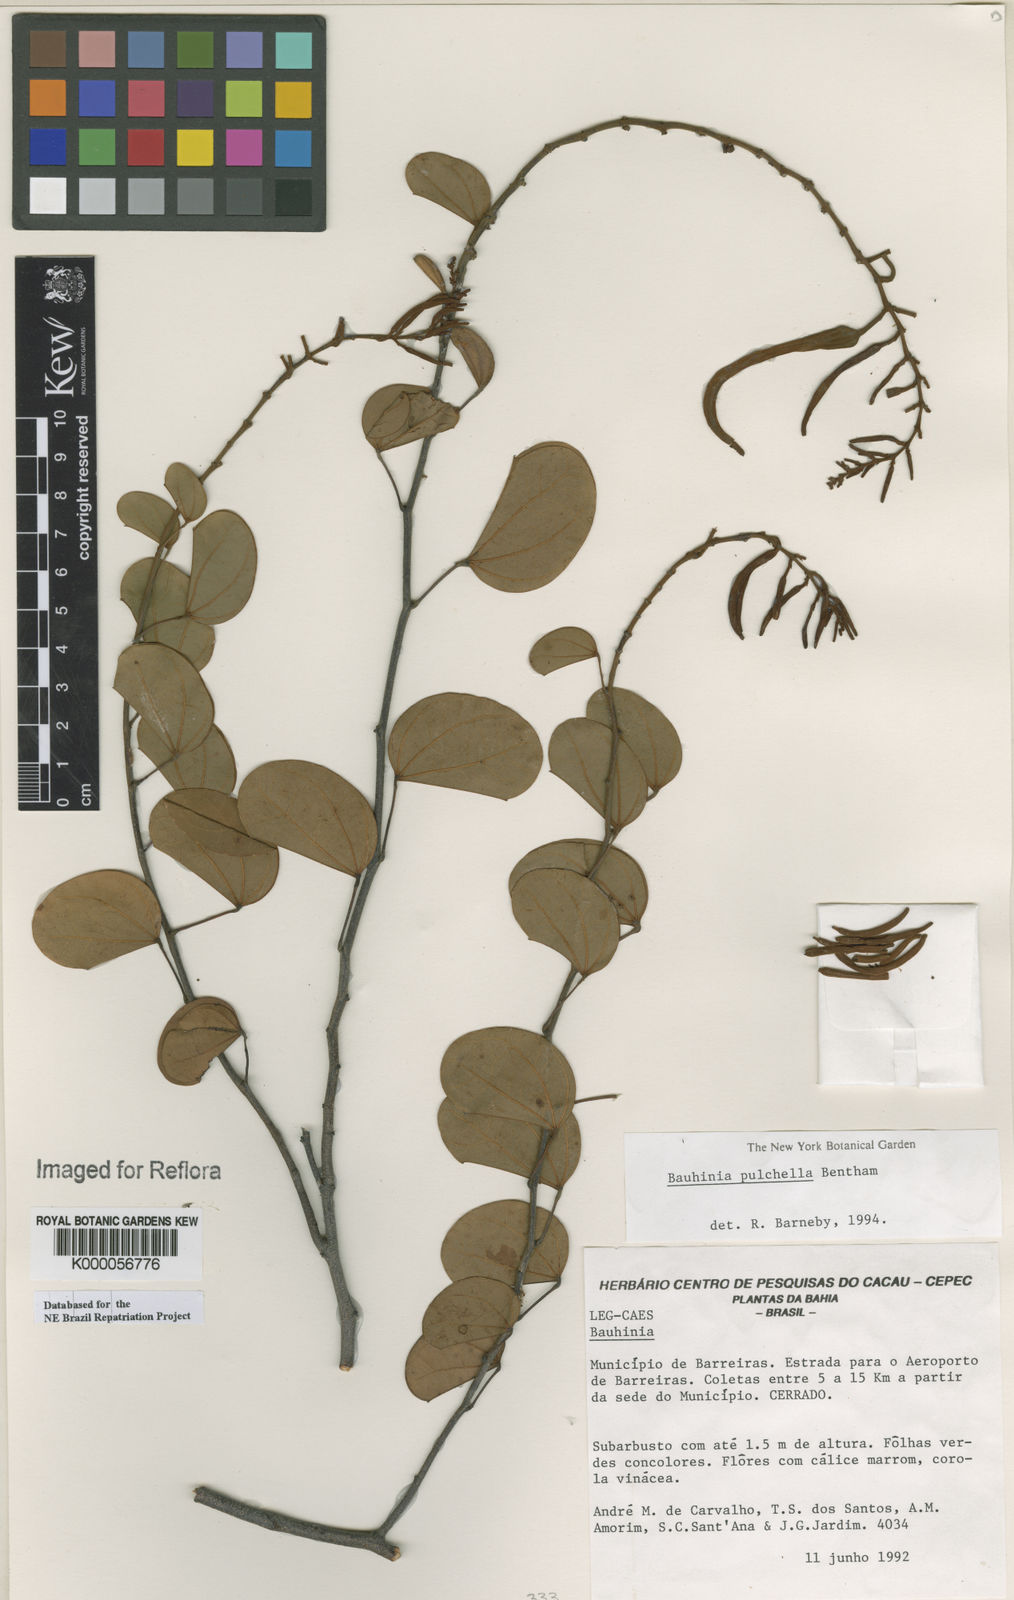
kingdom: Plantae
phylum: Tracheophyta
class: Magnoliopsida
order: Fabales
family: Fabaceae
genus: Bauhinia
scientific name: Bauhinia pulchella
